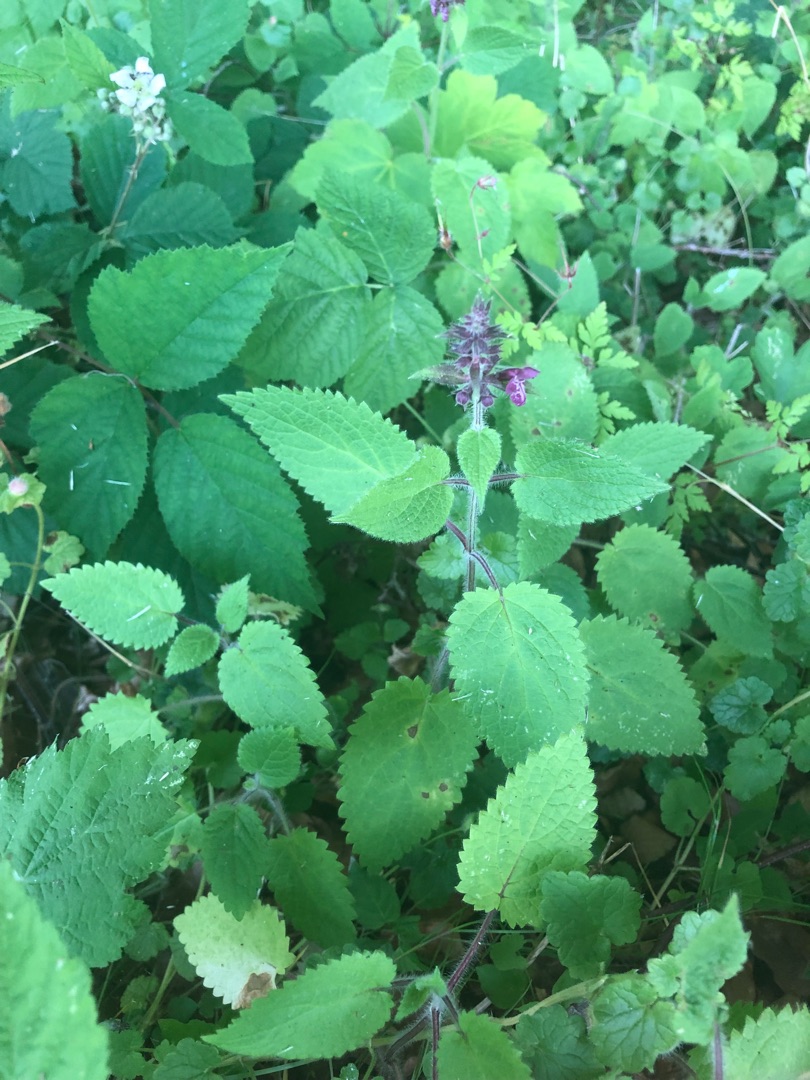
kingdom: Plantae
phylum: Tracheophyta
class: Magnoliopsida
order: Lamiales
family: Lamiaceae
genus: Stachys
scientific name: Stachys sylvatica
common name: Skov-galtetand
